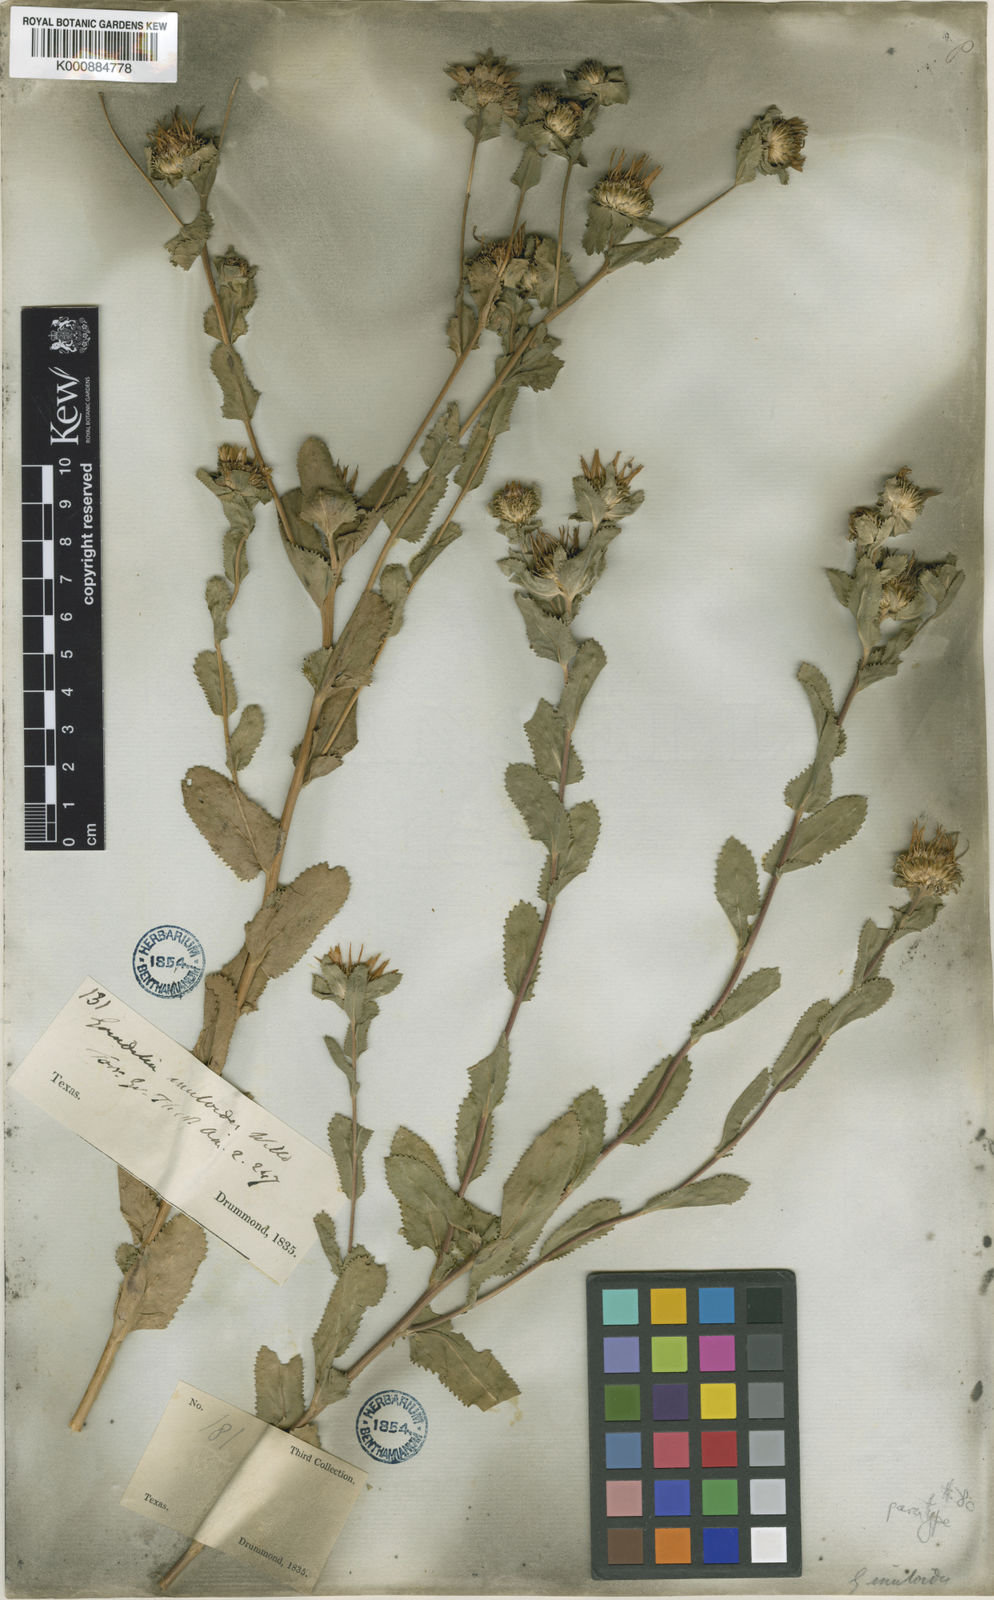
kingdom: Plantae
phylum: Tracheophyta
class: Magnoliopsida
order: Asterales
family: Asteraceae
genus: Grindelia
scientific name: Grindelia adenodonta
